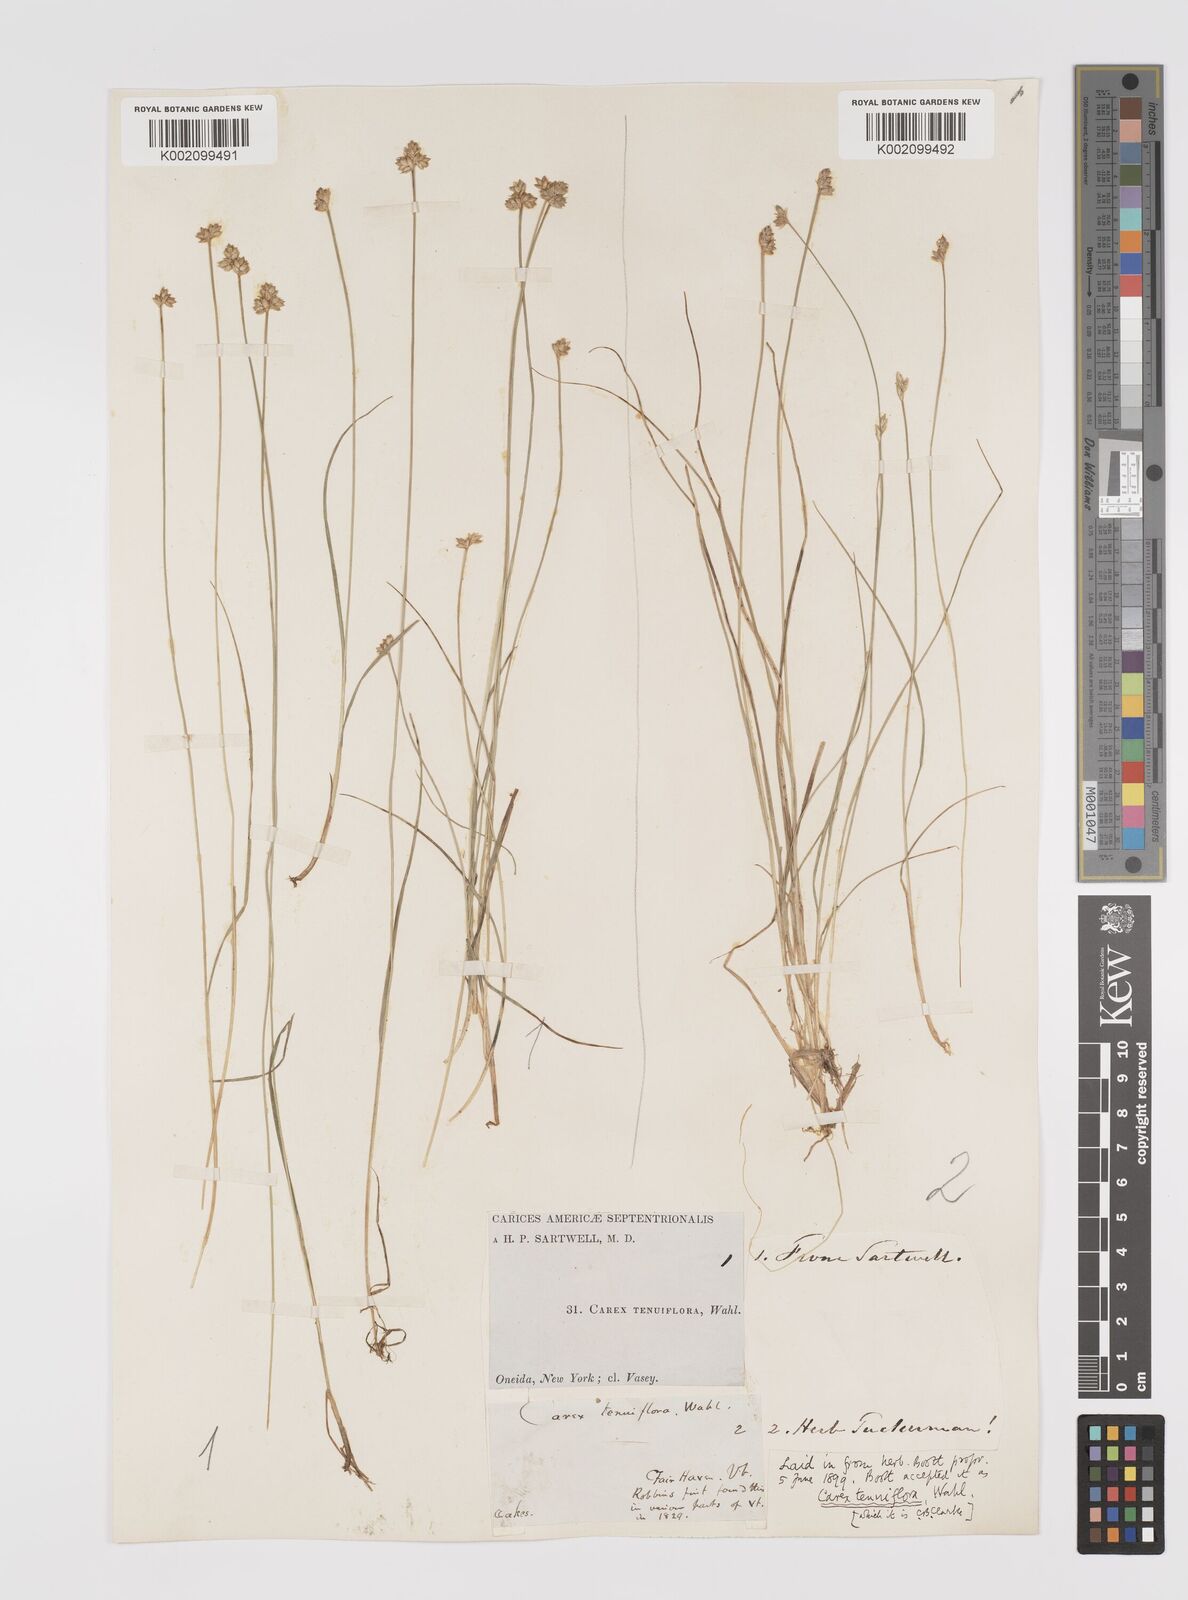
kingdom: Plantae
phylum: Tracheophyta
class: Liliopsida
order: Poales
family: Cyperaceae
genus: Carex
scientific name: Carex tenuiflora
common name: Sparse-flowered sedge
